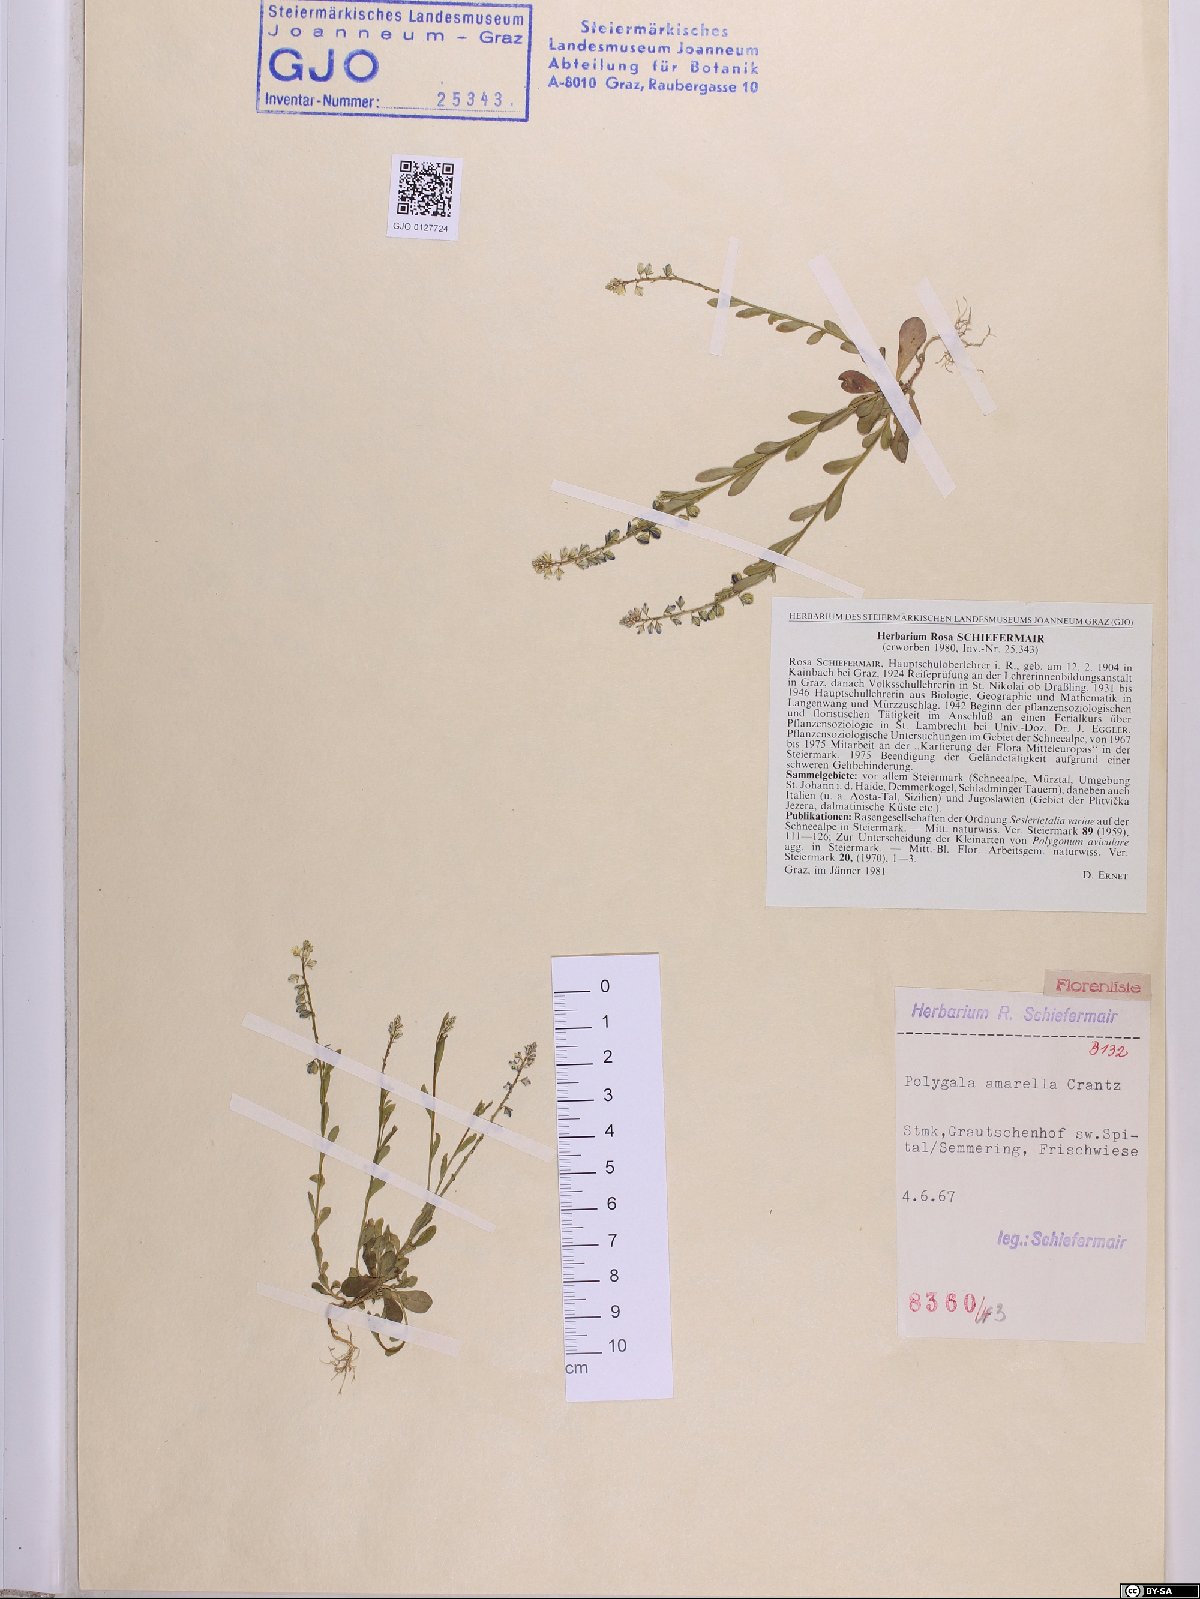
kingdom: Plantae
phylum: Tracheophyta
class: Magnoliopsida
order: Fabales
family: Polygalaceae
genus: Polygala
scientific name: Polygala amarella
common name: Dwarf milkwort
